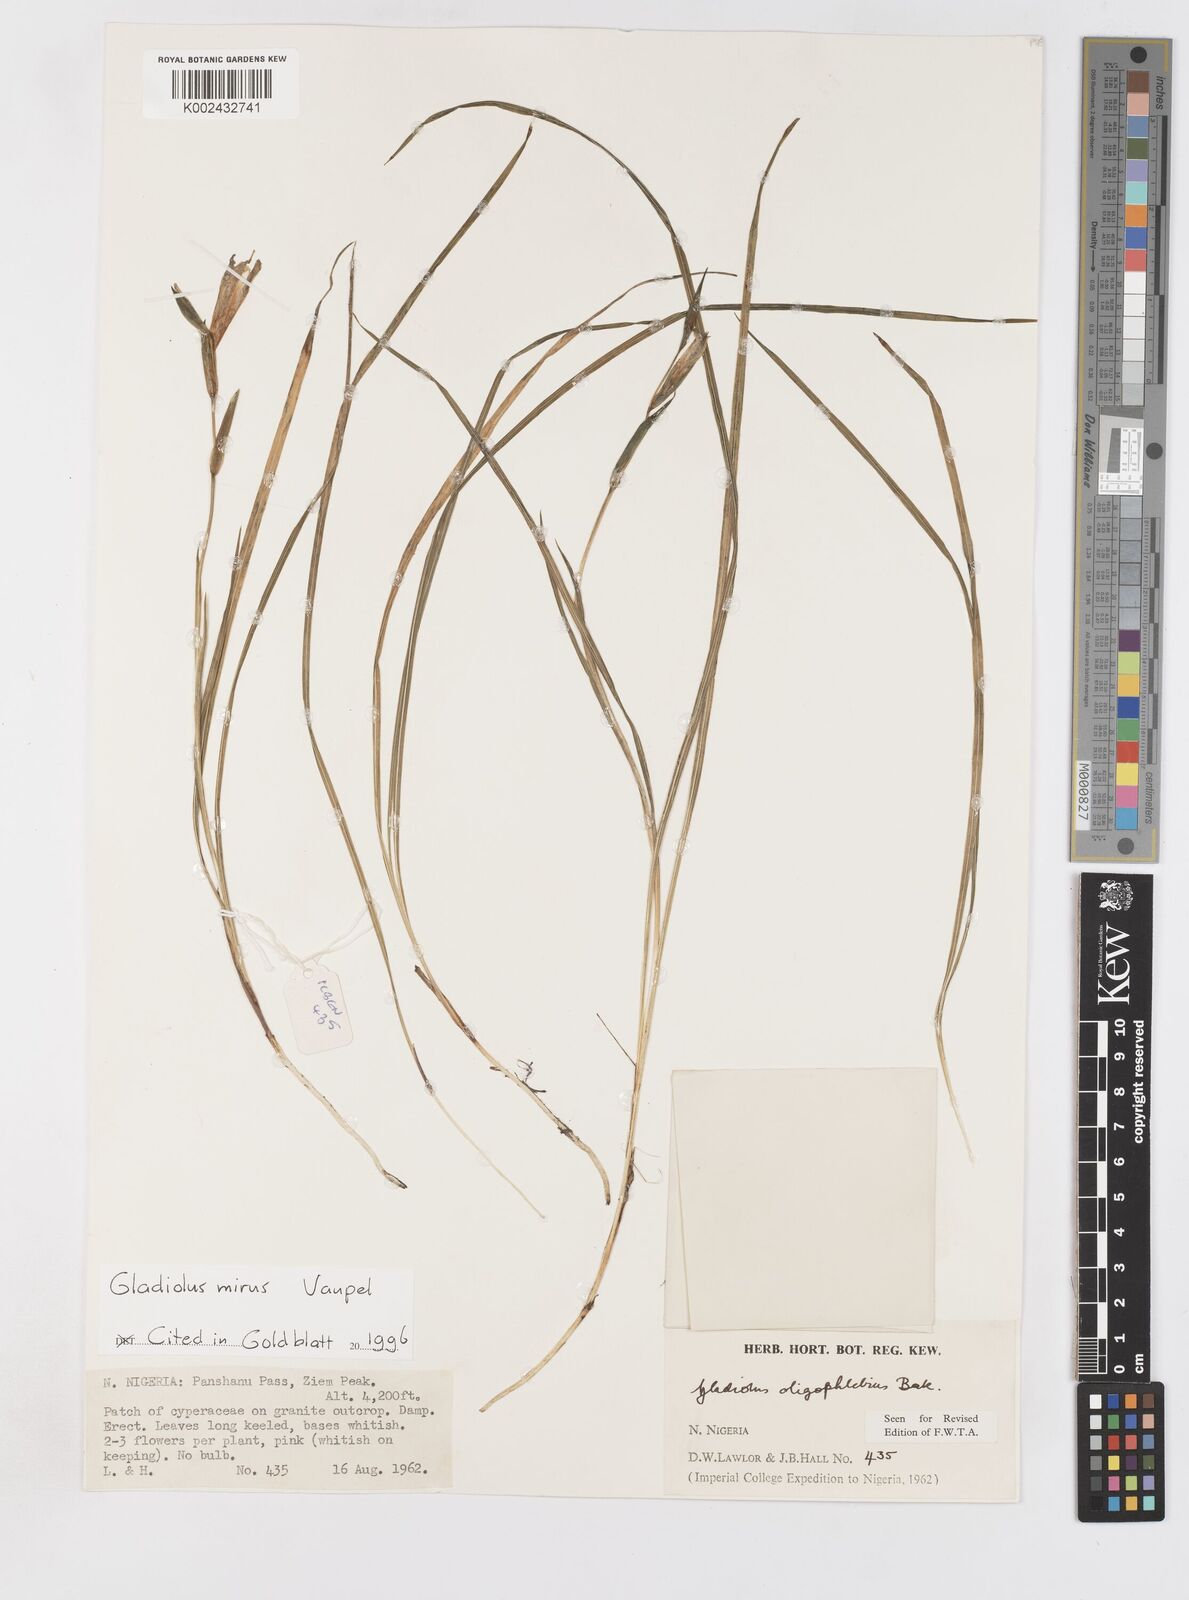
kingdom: Plantae
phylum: Tracheophyta
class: Liliopsida
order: Asparagales
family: Iridaceae
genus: Gladiolus
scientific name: Gladiolus mirus
